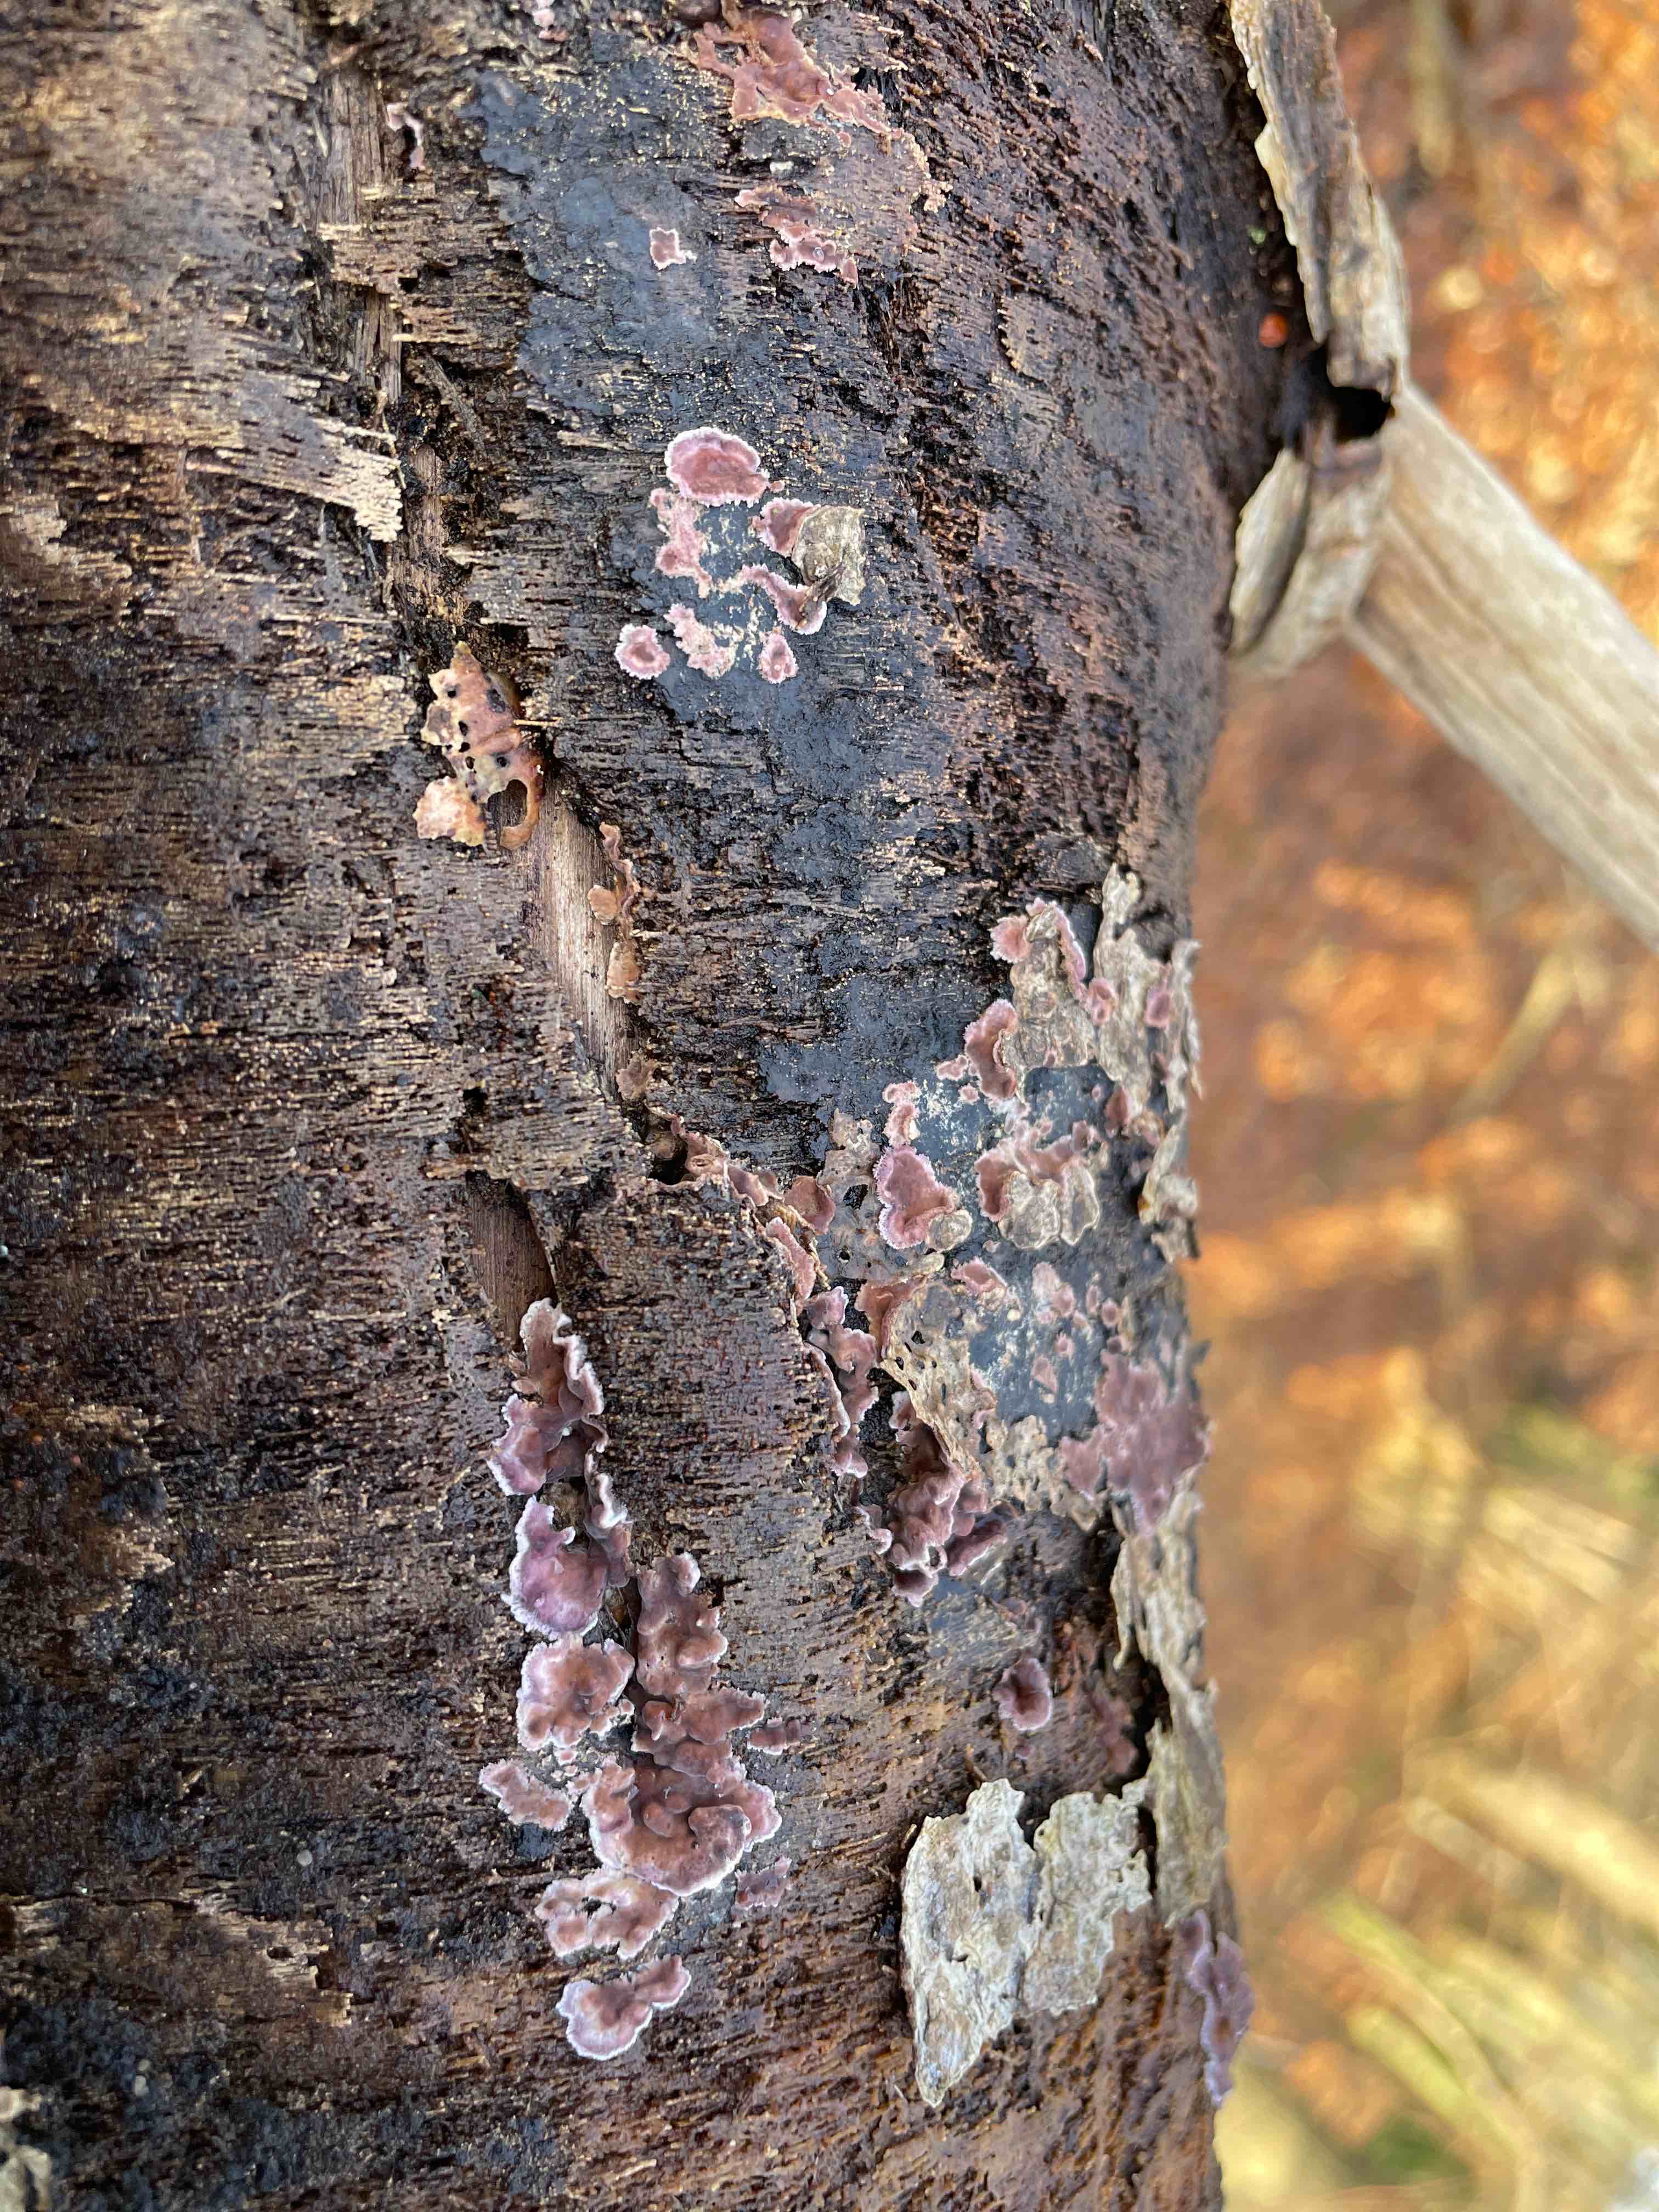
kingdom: Fungi
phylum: Basidiomycota
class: Agaricomycetes
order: Agaricales
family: Cyphellaceae
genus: Chondrostereum
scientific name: Chondrostereum purpureum
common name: purpurlædersvamp
